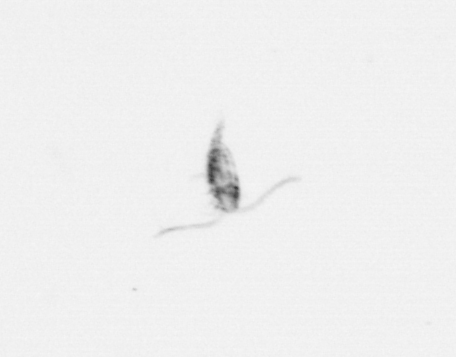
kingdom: Animalia
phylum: Arthropoda
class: Copepoda
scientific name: Copepoda
